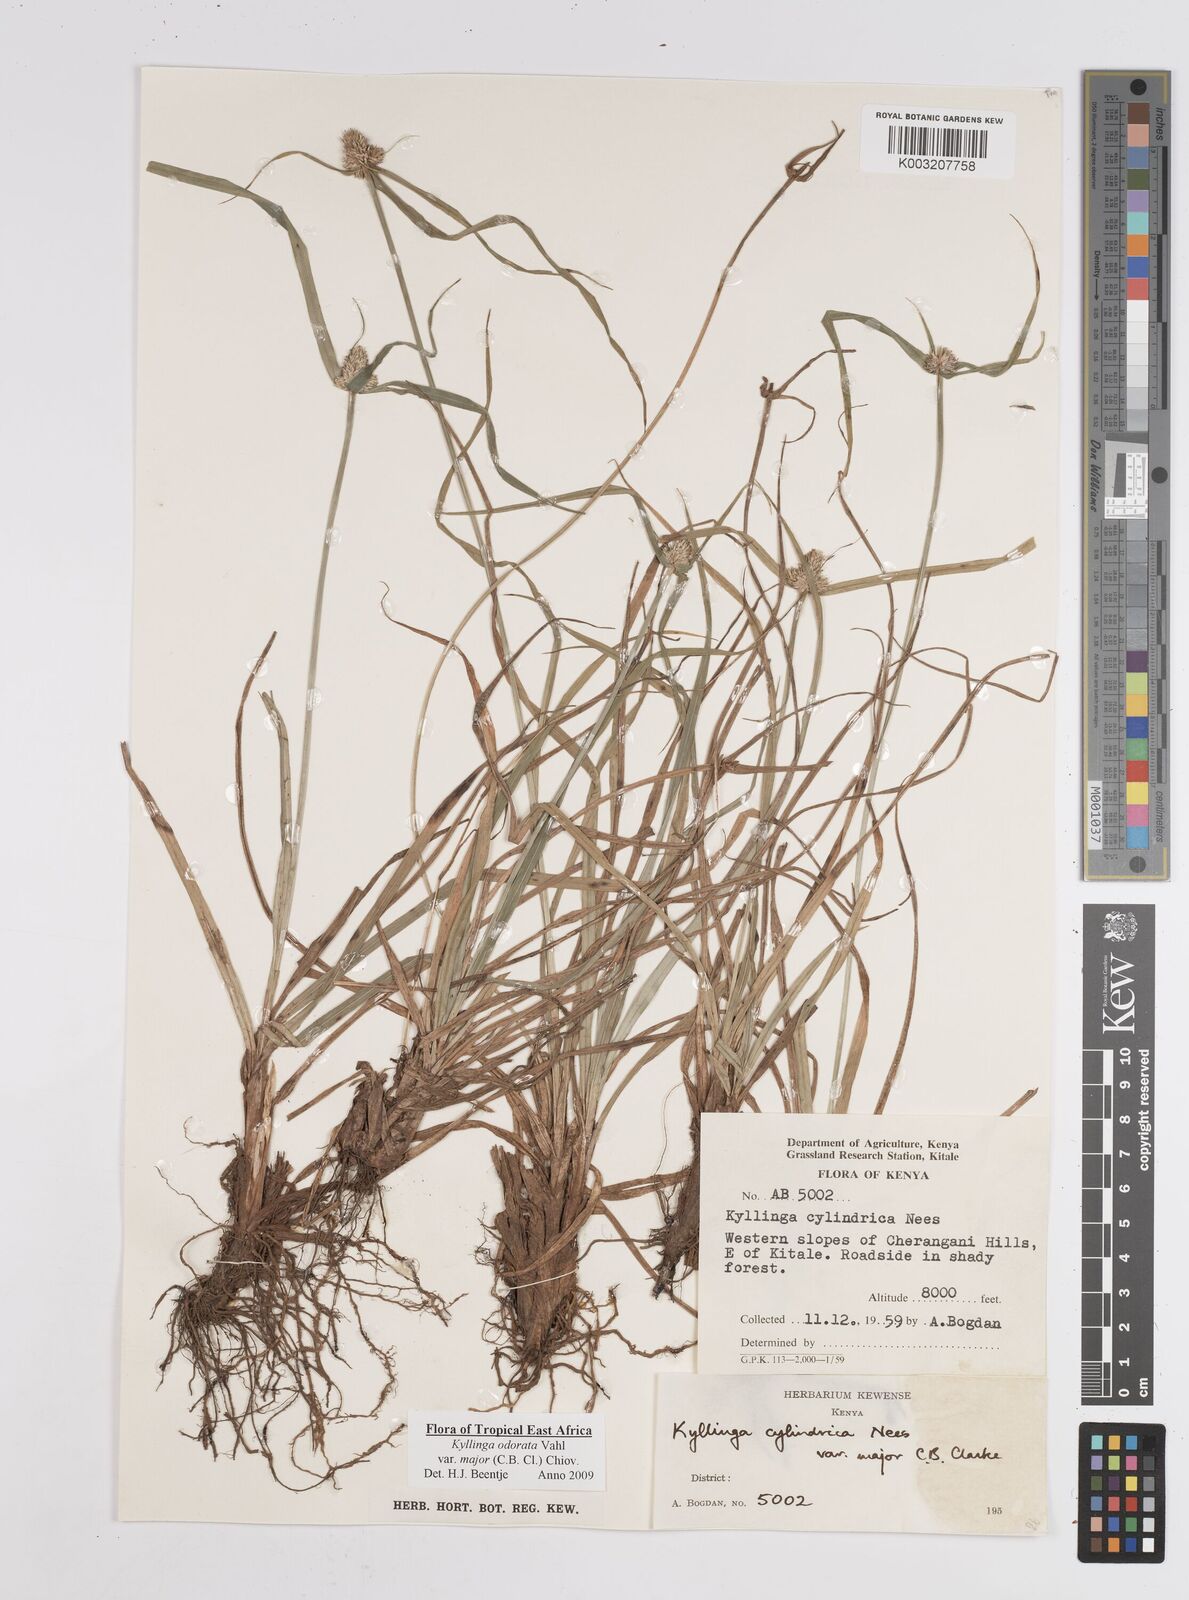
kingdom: Plantae
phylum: Tracheophyta
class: Liliopsida
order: Poales
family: Cyperaceae
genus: Cyperus
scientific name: Cyperus
